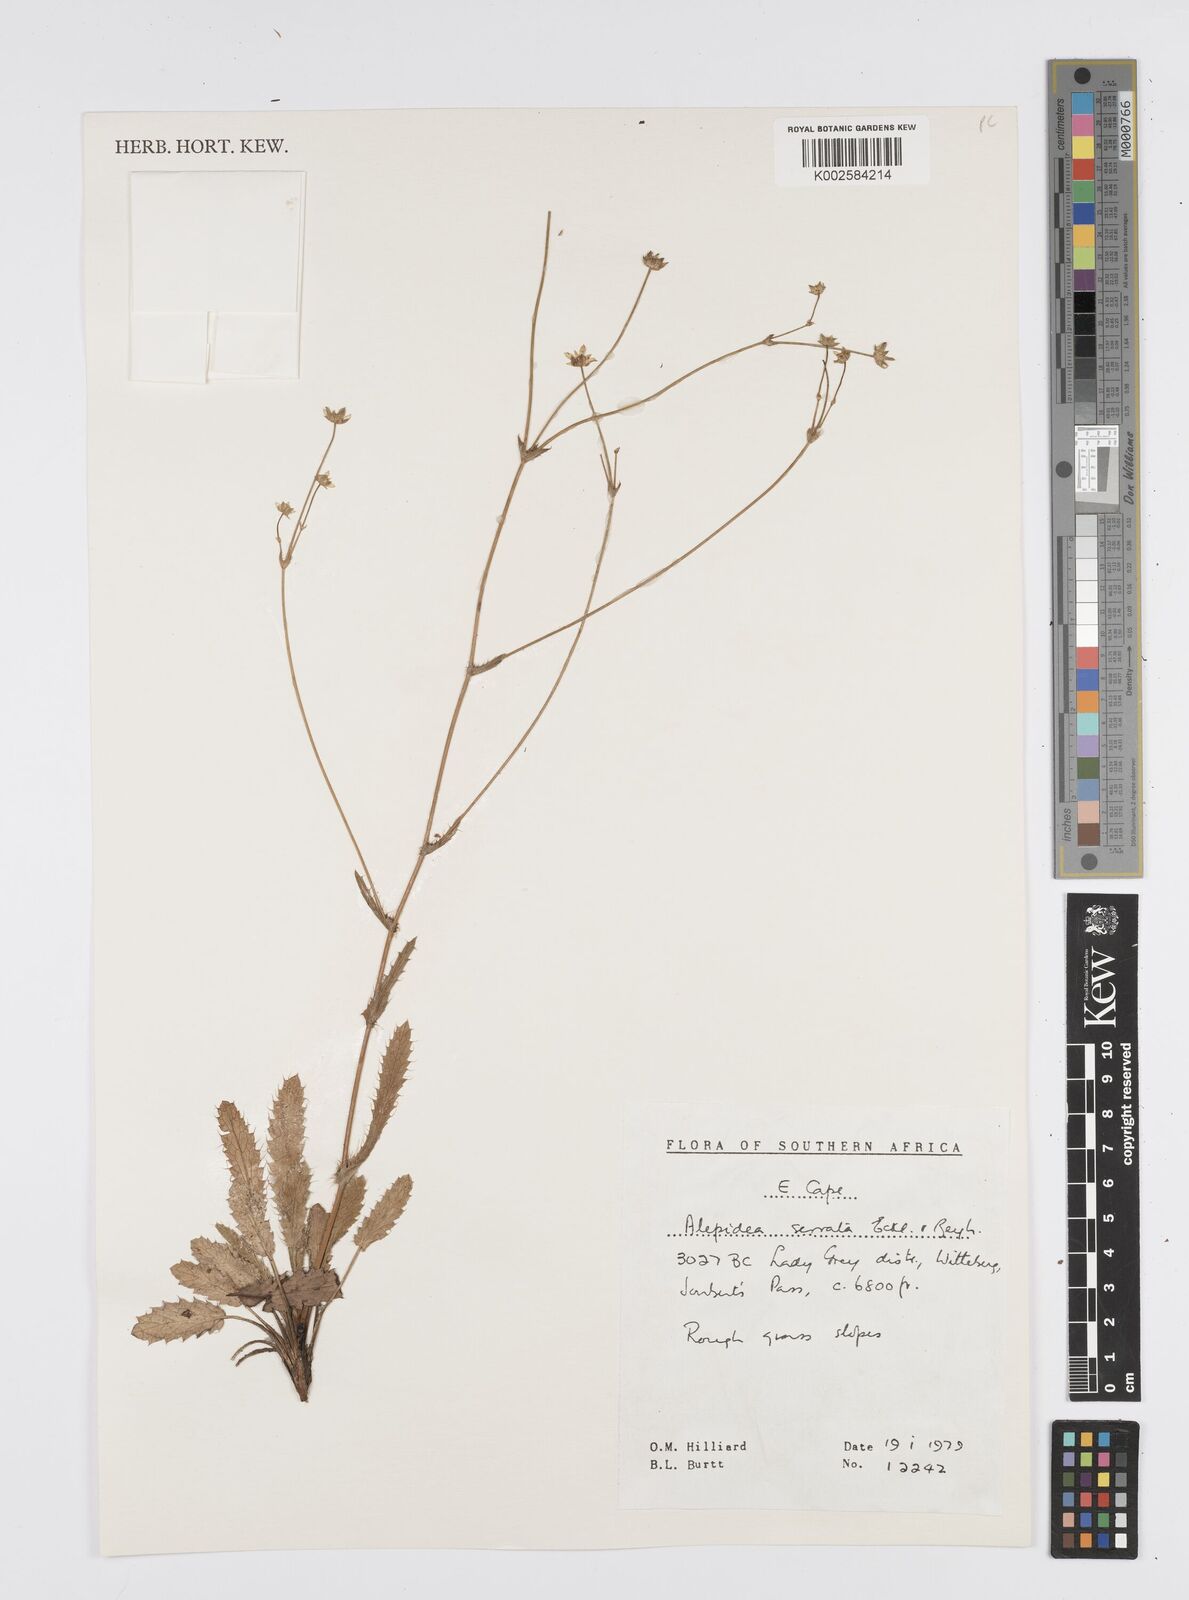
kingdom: Plantae
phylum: Tracheophyta
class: Magnoliopsida
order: Apiales
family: Apiaceae
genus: Alepidea
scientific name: Alepidea serrata
